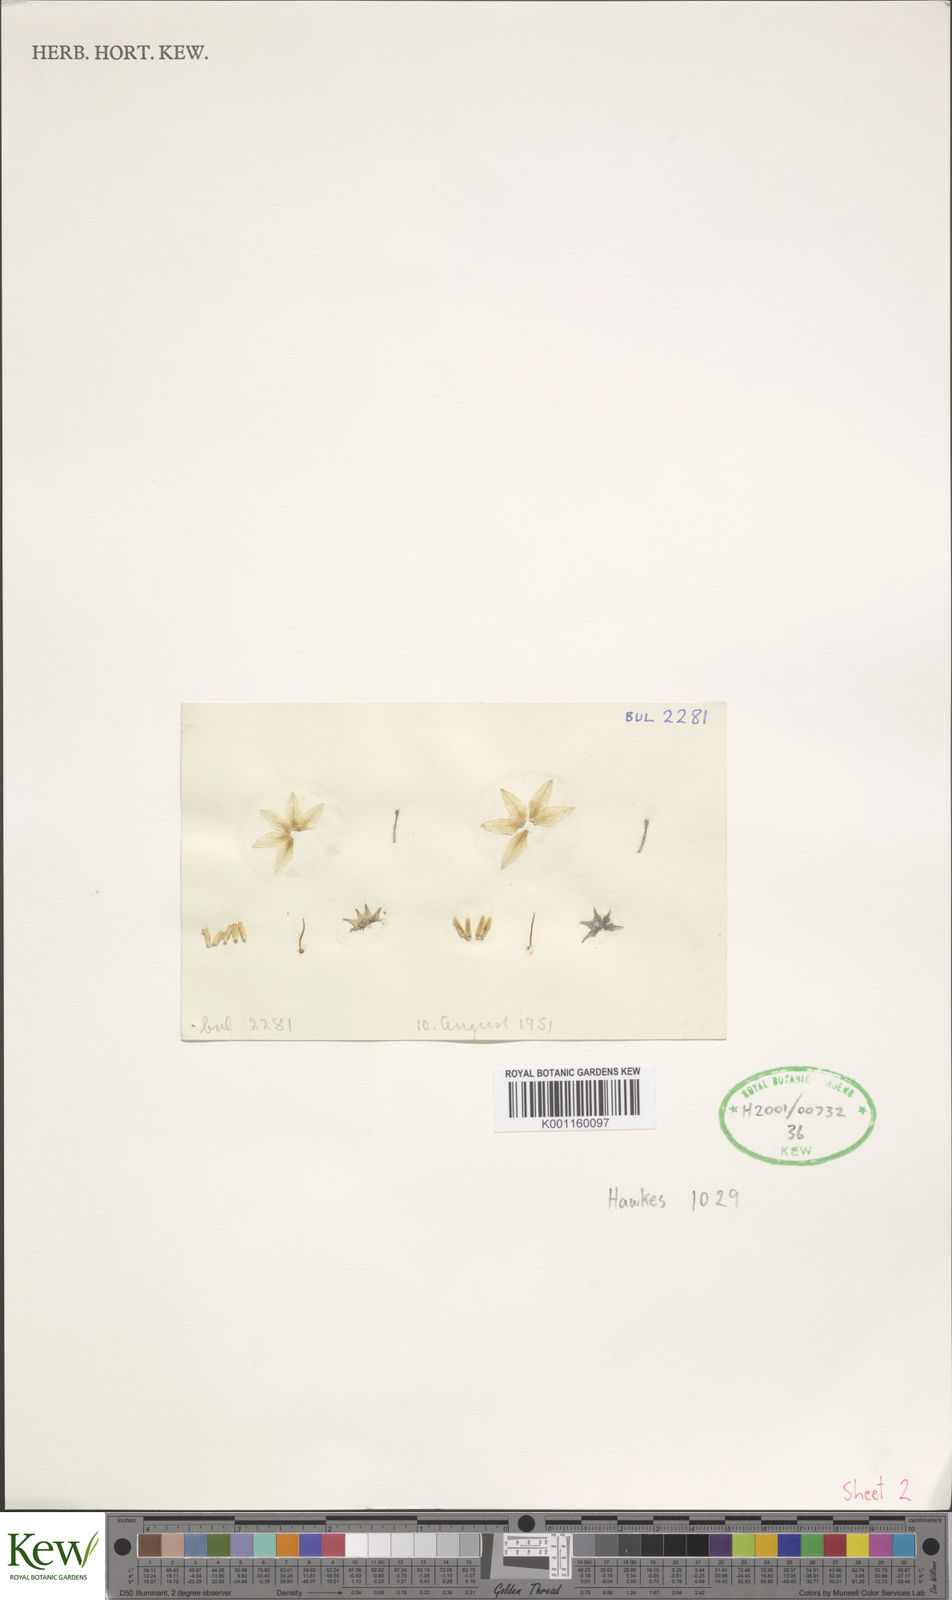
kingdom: Plantae
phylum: Tracheophyta
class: Magnoliopsida
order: Solanales
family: Solanaceae
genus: Solanum
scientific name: Solanum bulbocastanum
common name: Ornamental nightshade
